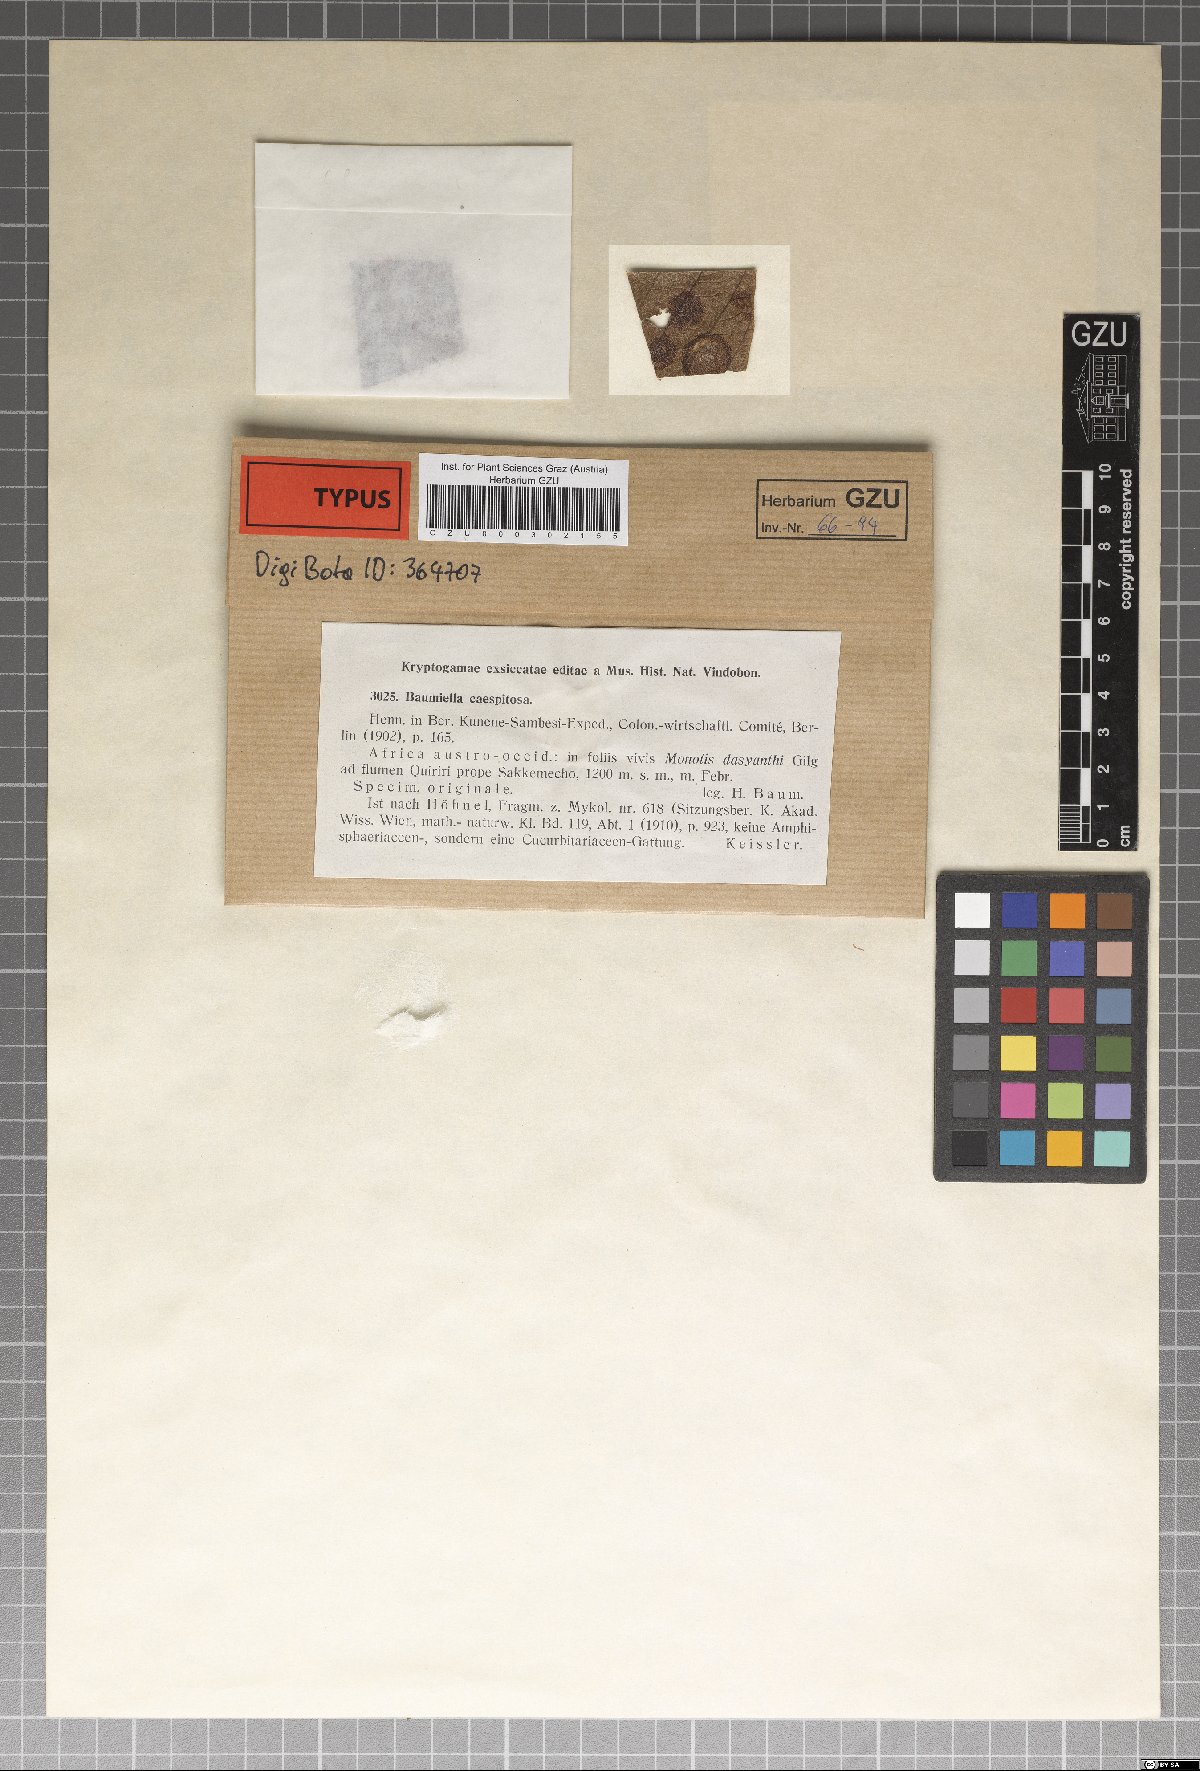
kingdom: Fungi
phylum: Ascomycota
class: Dothideomycetes
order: Pleosporales
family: Leptosphaeriaceae
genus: Leptosphaeria
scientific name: Leptosphaeria
